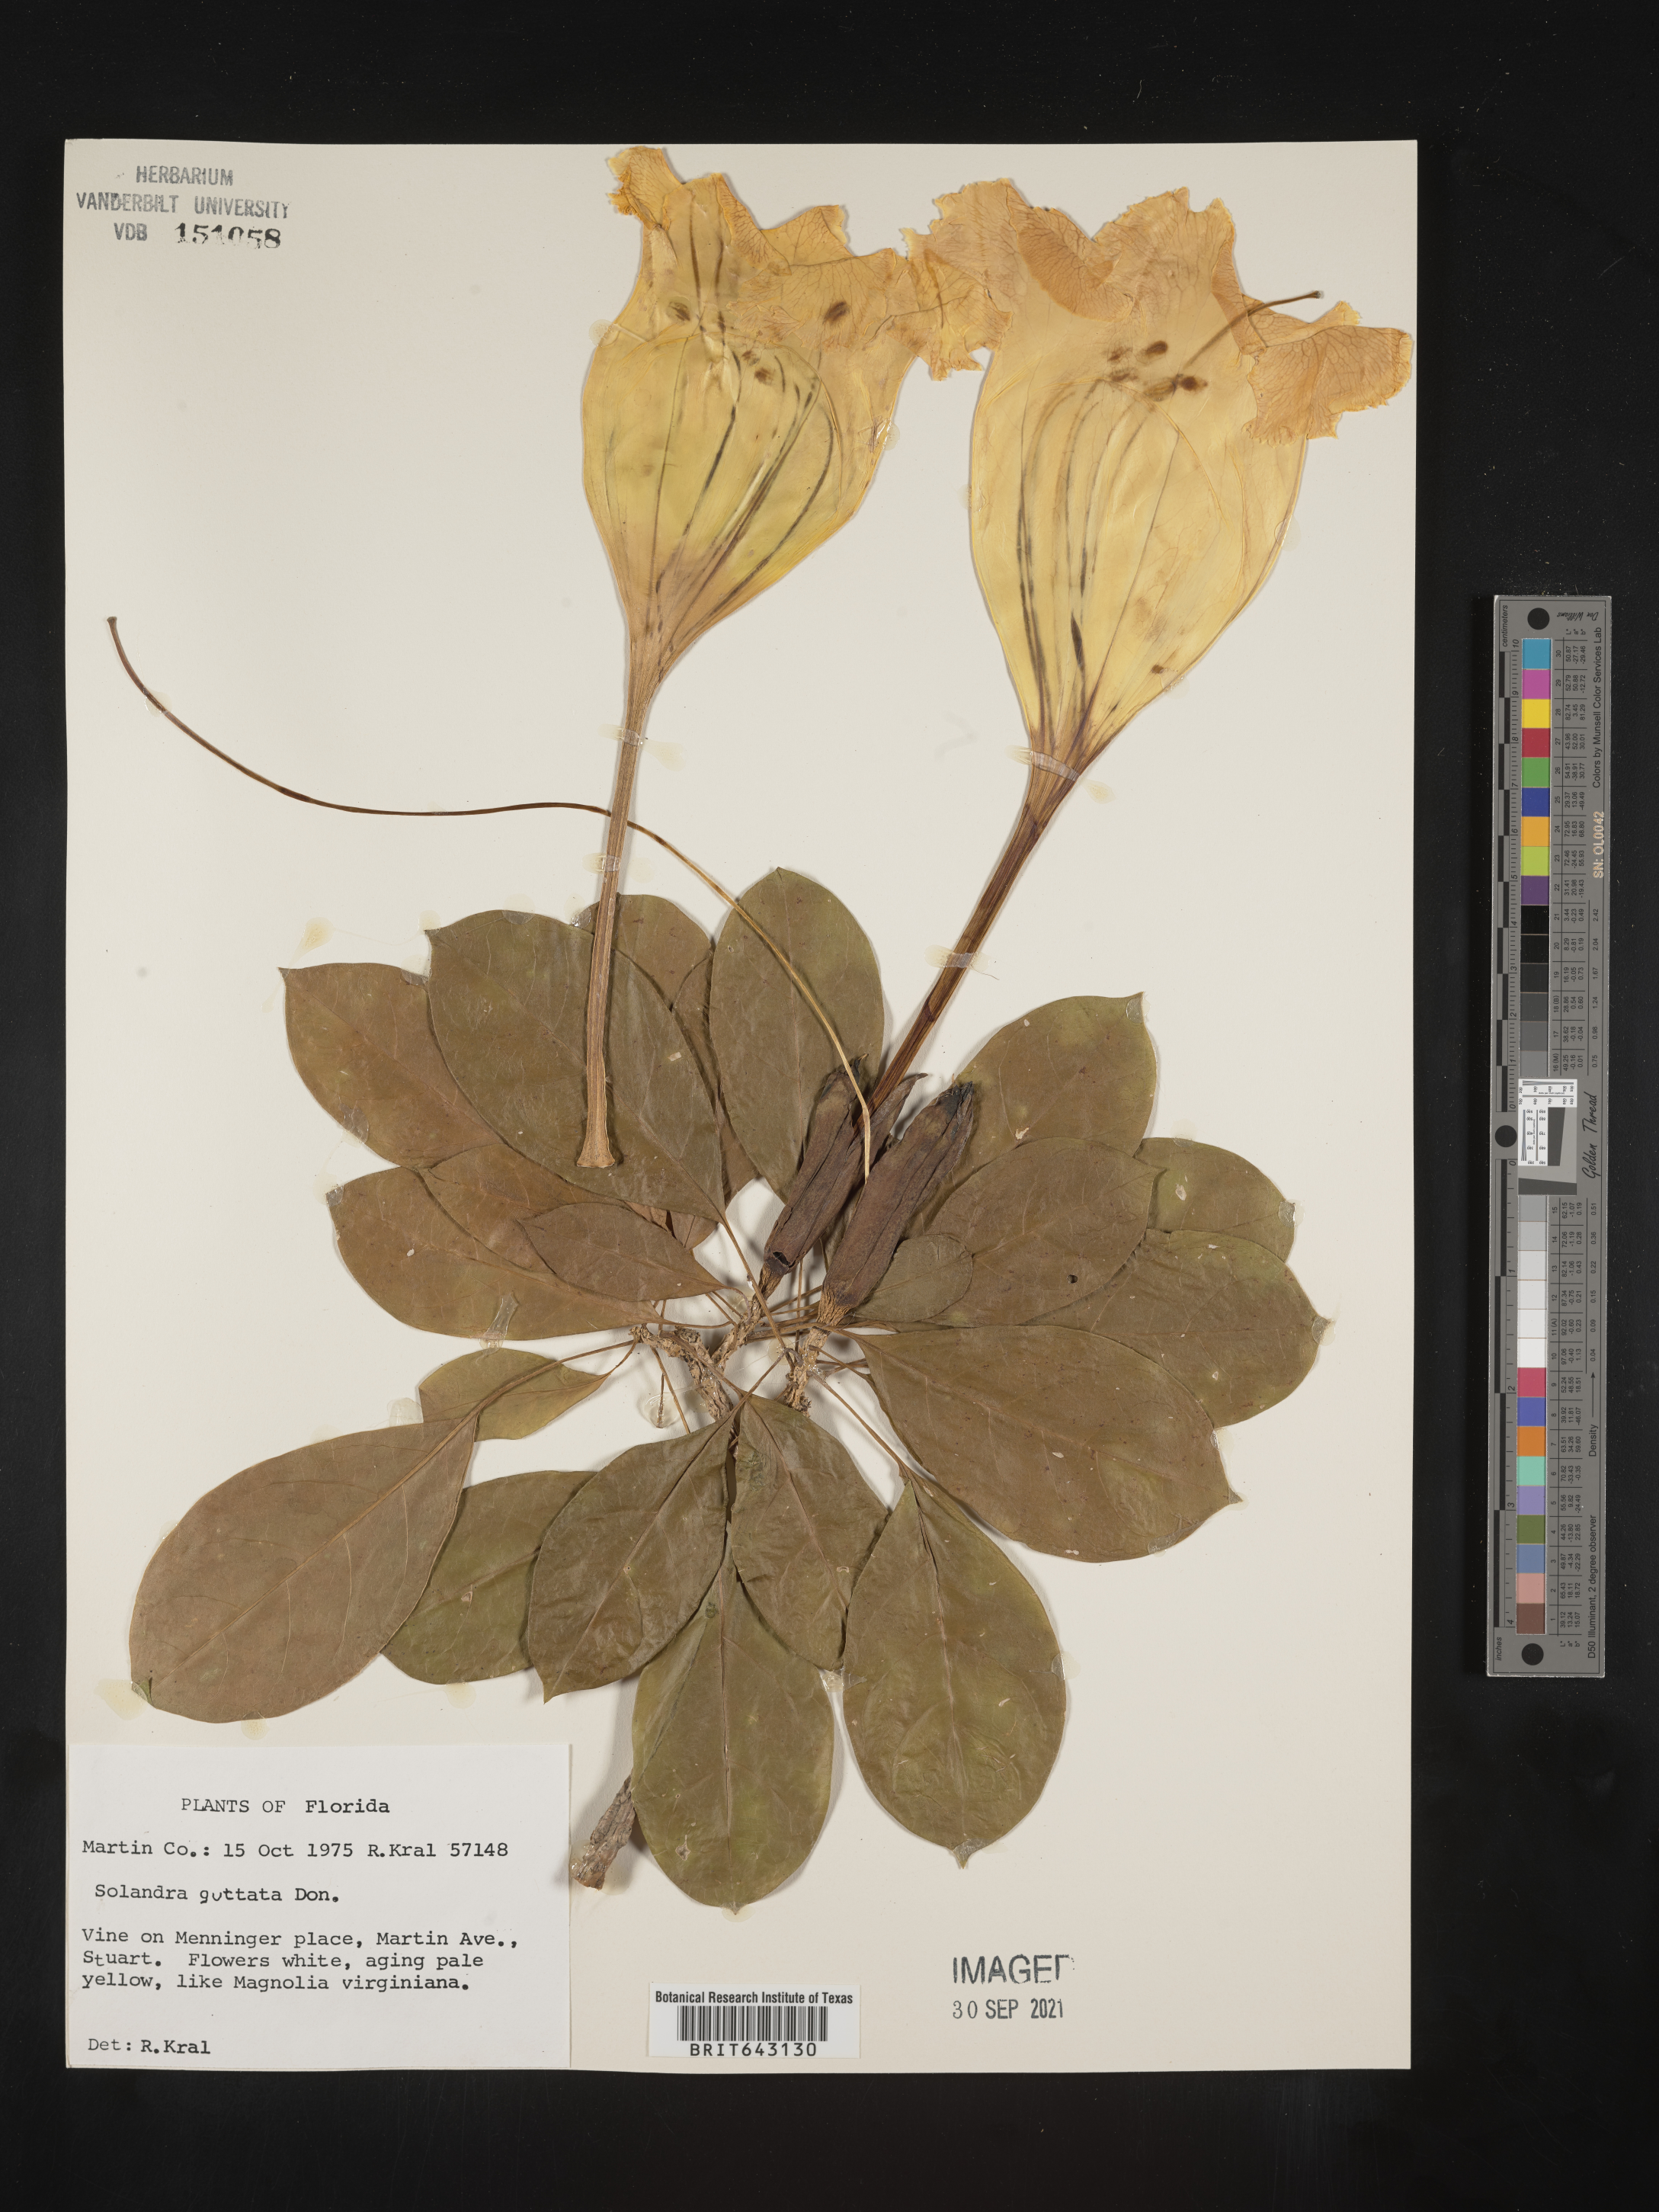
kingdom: Plantae
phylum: Tracheophyta
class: Magnoliopsida
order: Solanales
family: Solanaceae
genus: Solandra
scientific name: Solandra
